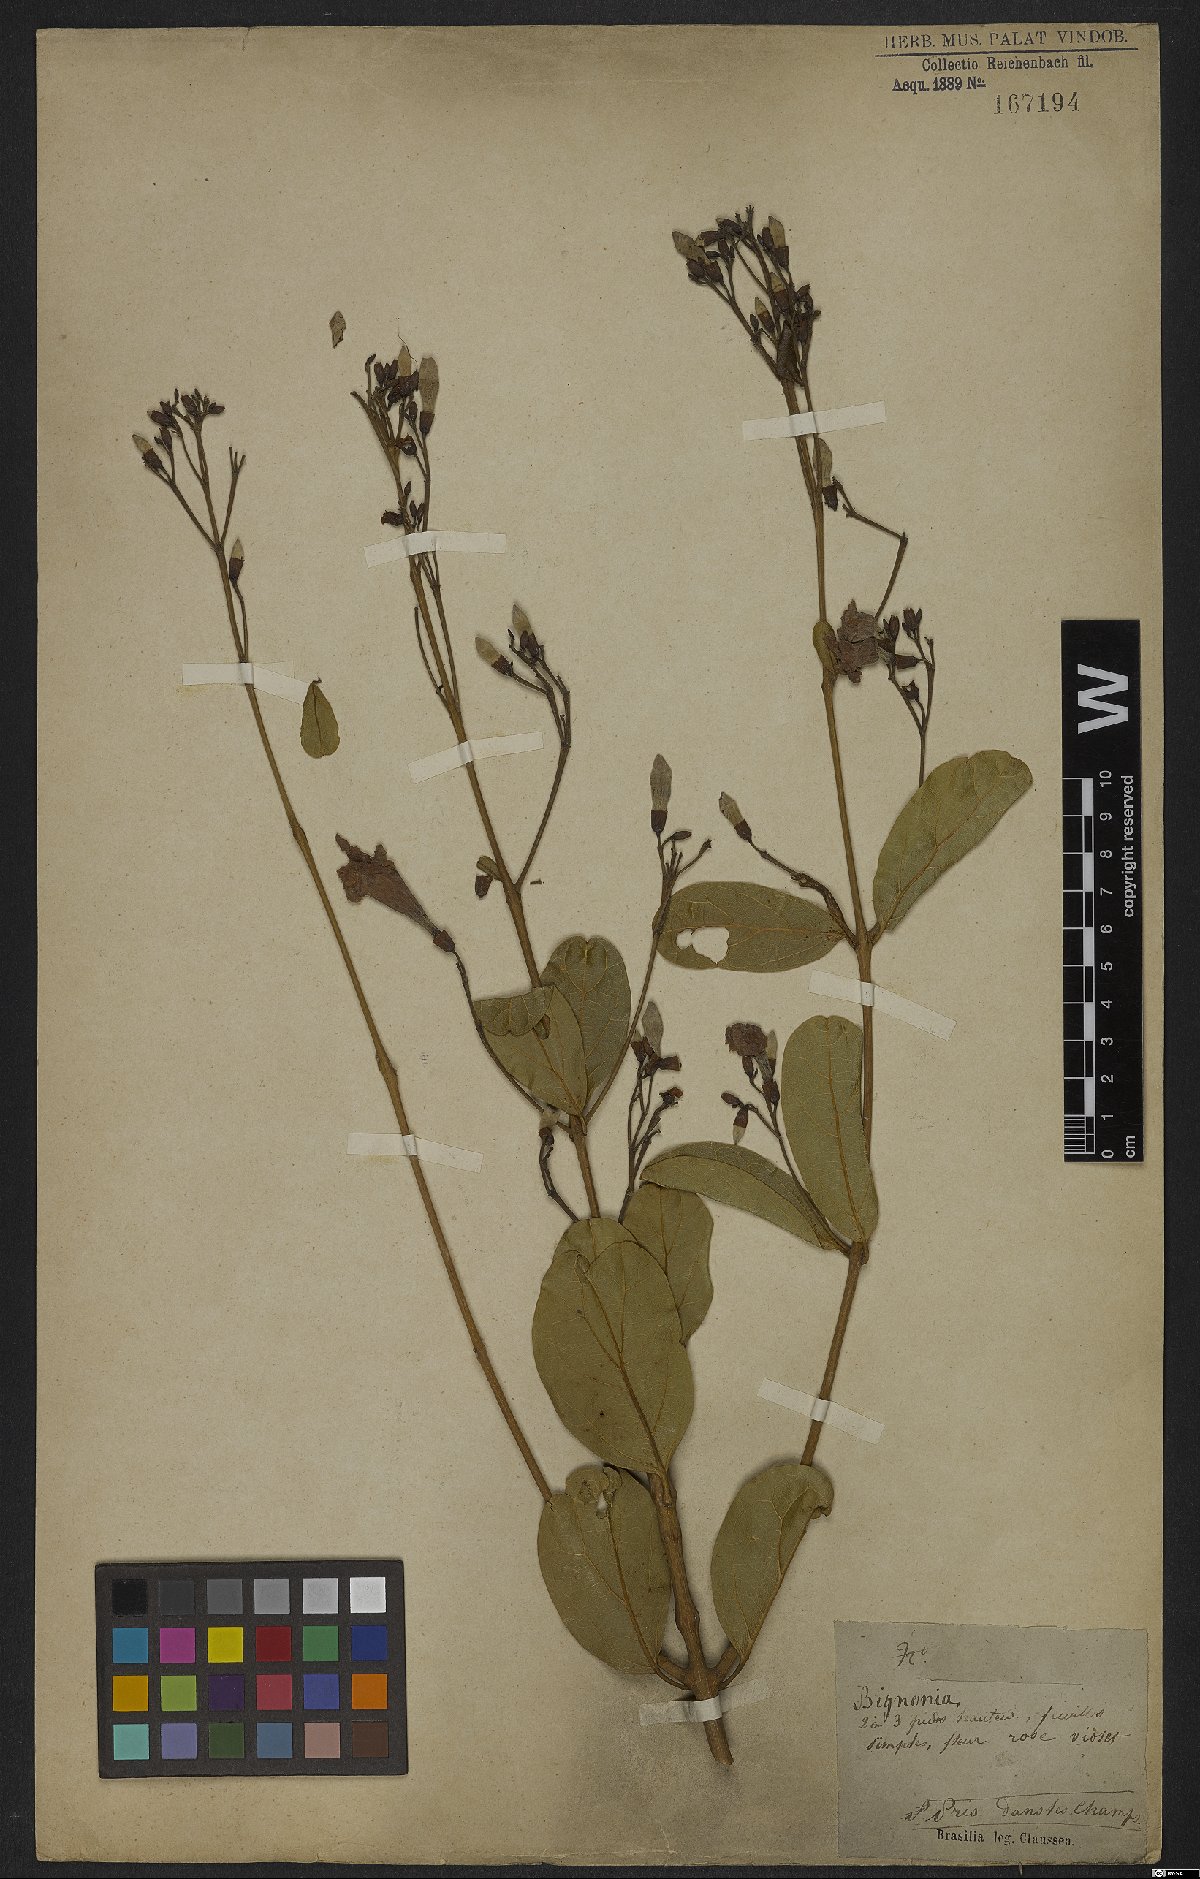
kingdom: Plantae
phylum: Tracheophyta
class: Magnoliopsida
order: Rosales
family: Rhamnaceae
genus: Arrabidaea
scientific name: Arrabidaea
